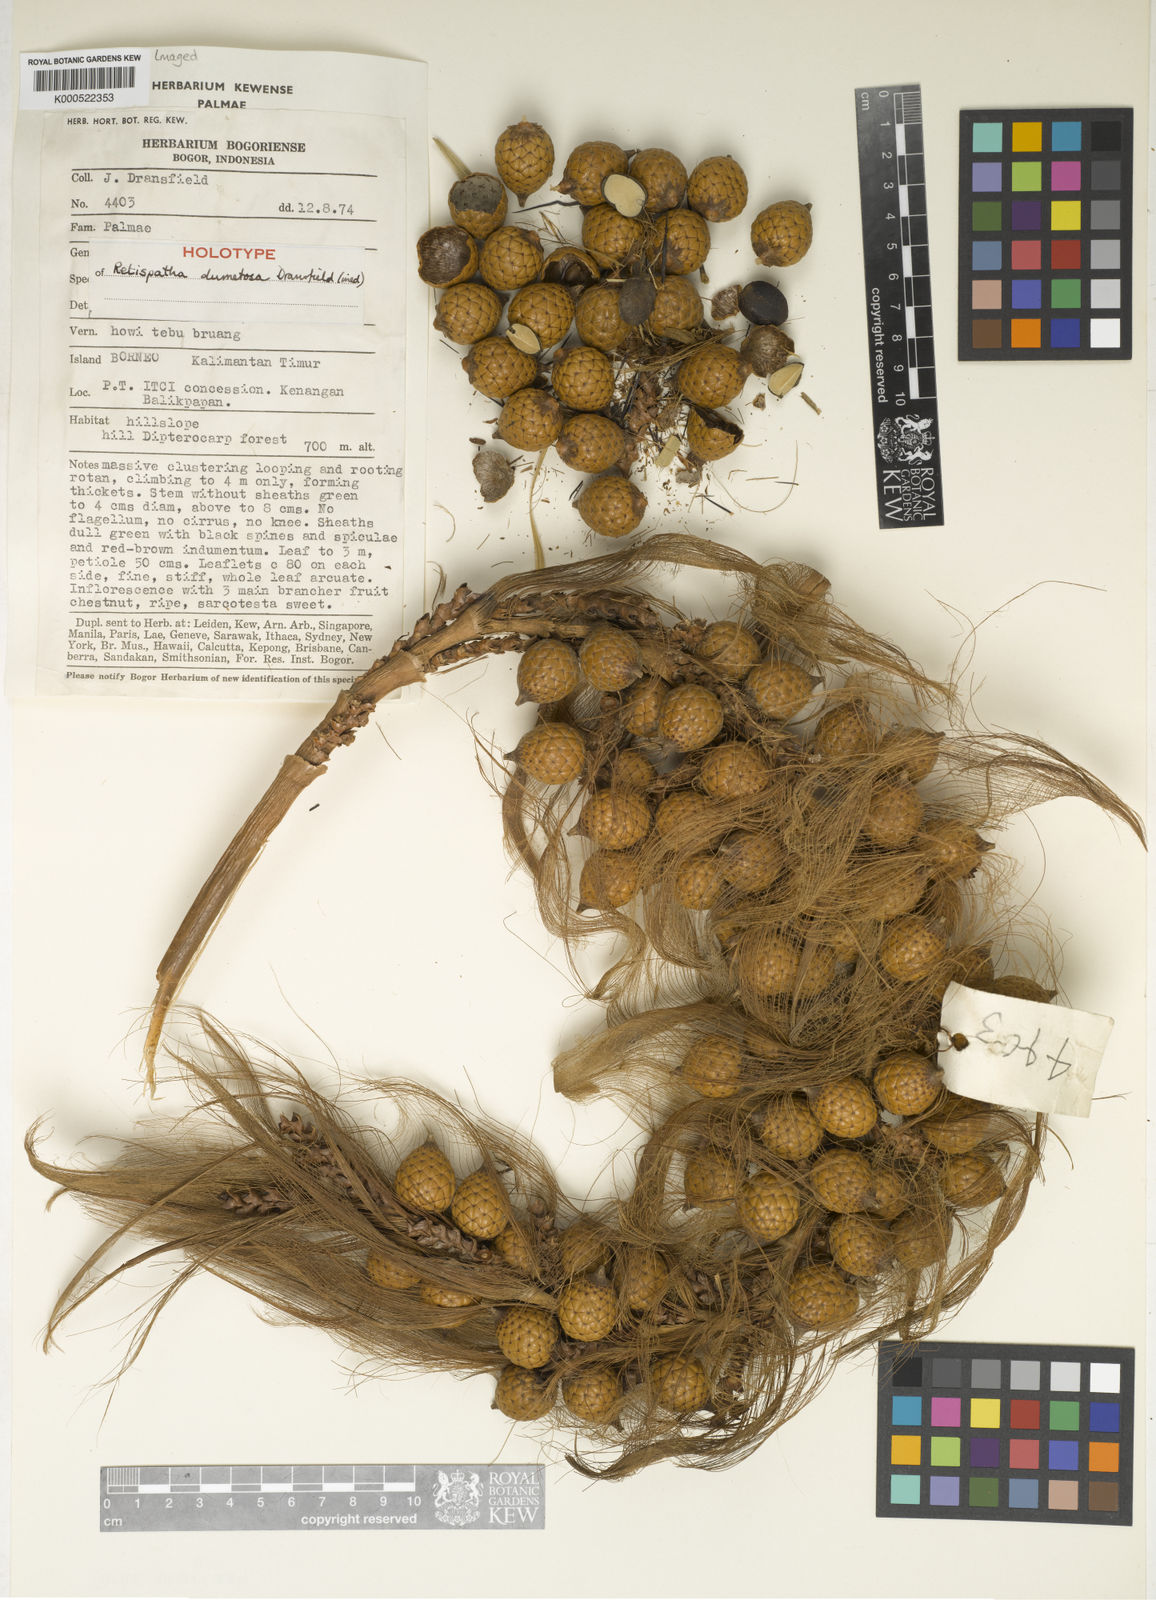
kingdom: Plantae
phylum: Tracheophyta
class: Liliopsida
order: Arecales
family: Arecaceae
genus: Calamus
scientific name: Calamus dumetosus
